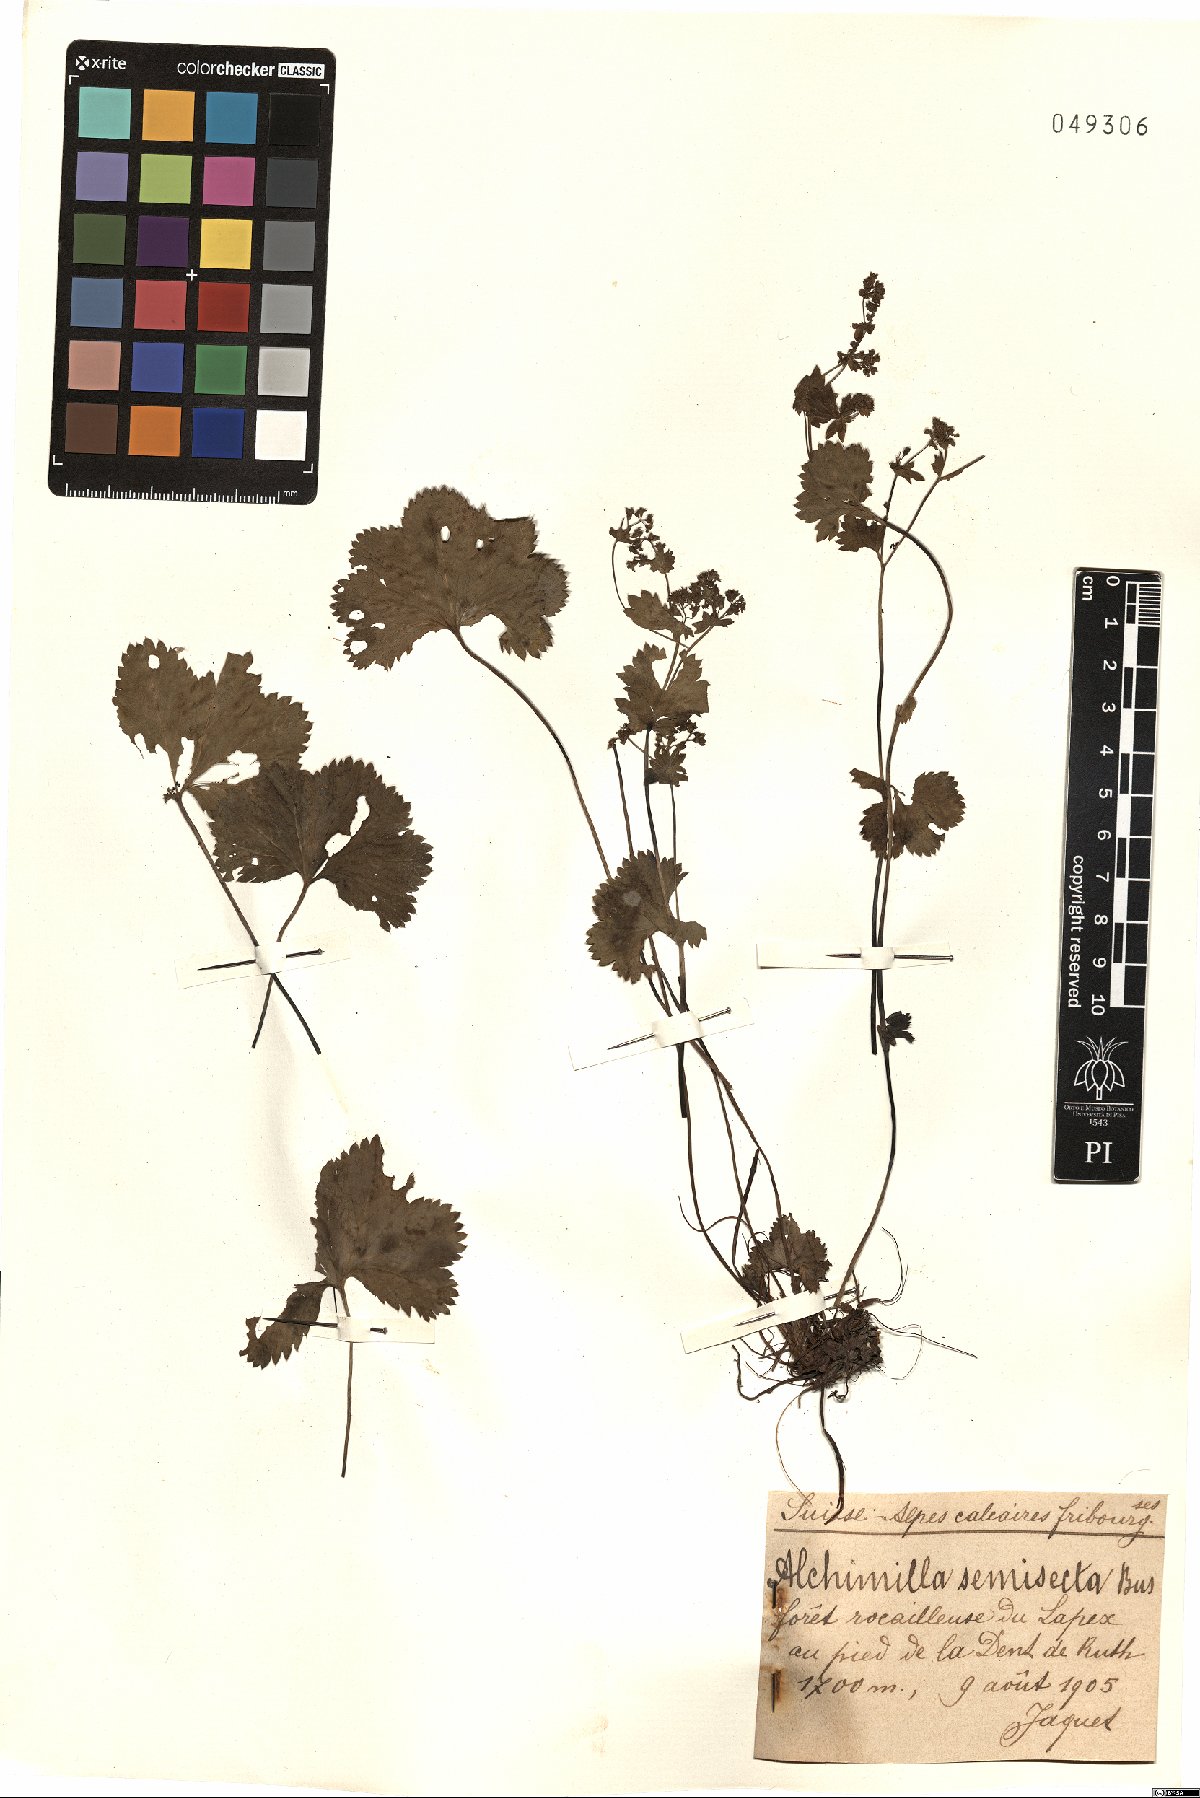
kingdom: Plantae
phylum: Tracheophyta
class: Magnoliopsida
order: Rosales
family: Rosaceae
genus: Alchemilla
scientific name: Alchemilla semisecta
